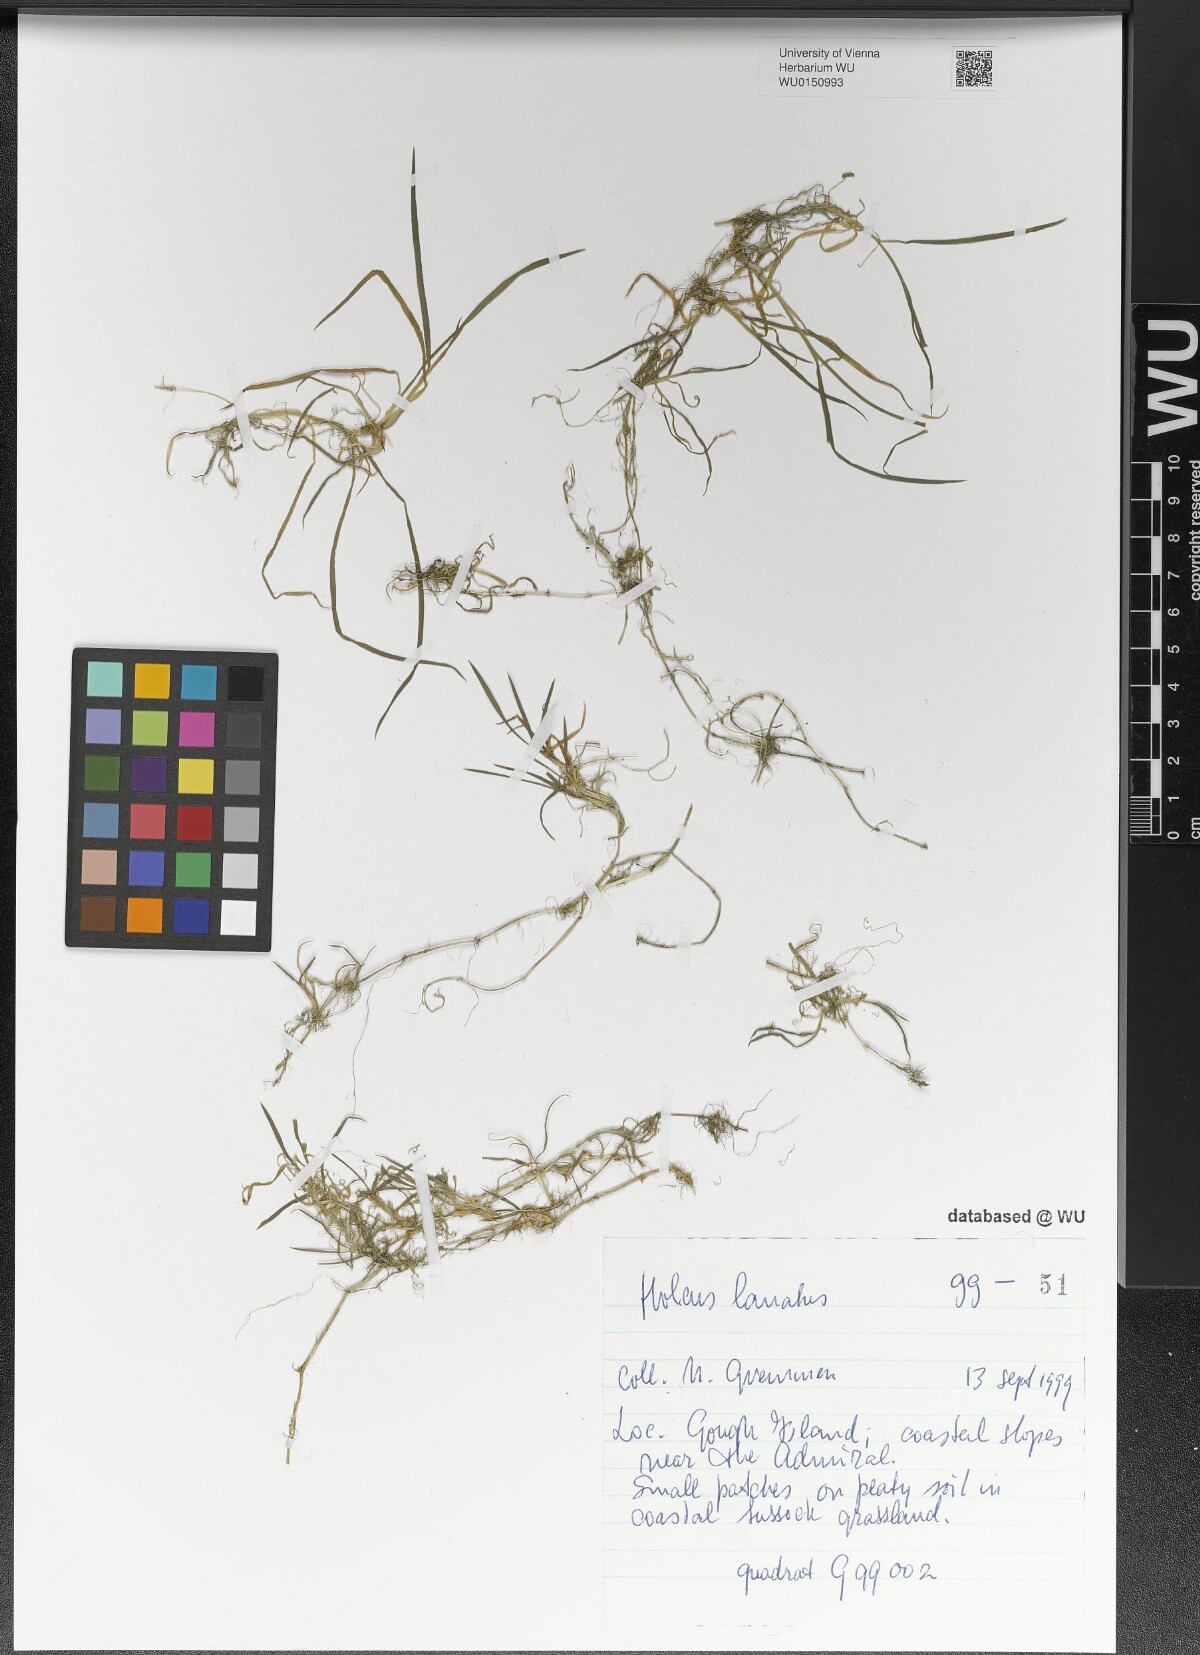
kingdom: Plantae
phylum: Tracheophyta
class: Liliopsida
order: Poales
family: Poaceae
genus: Holcus
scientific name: Holcus lanatus
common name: Yorkshire-fog
